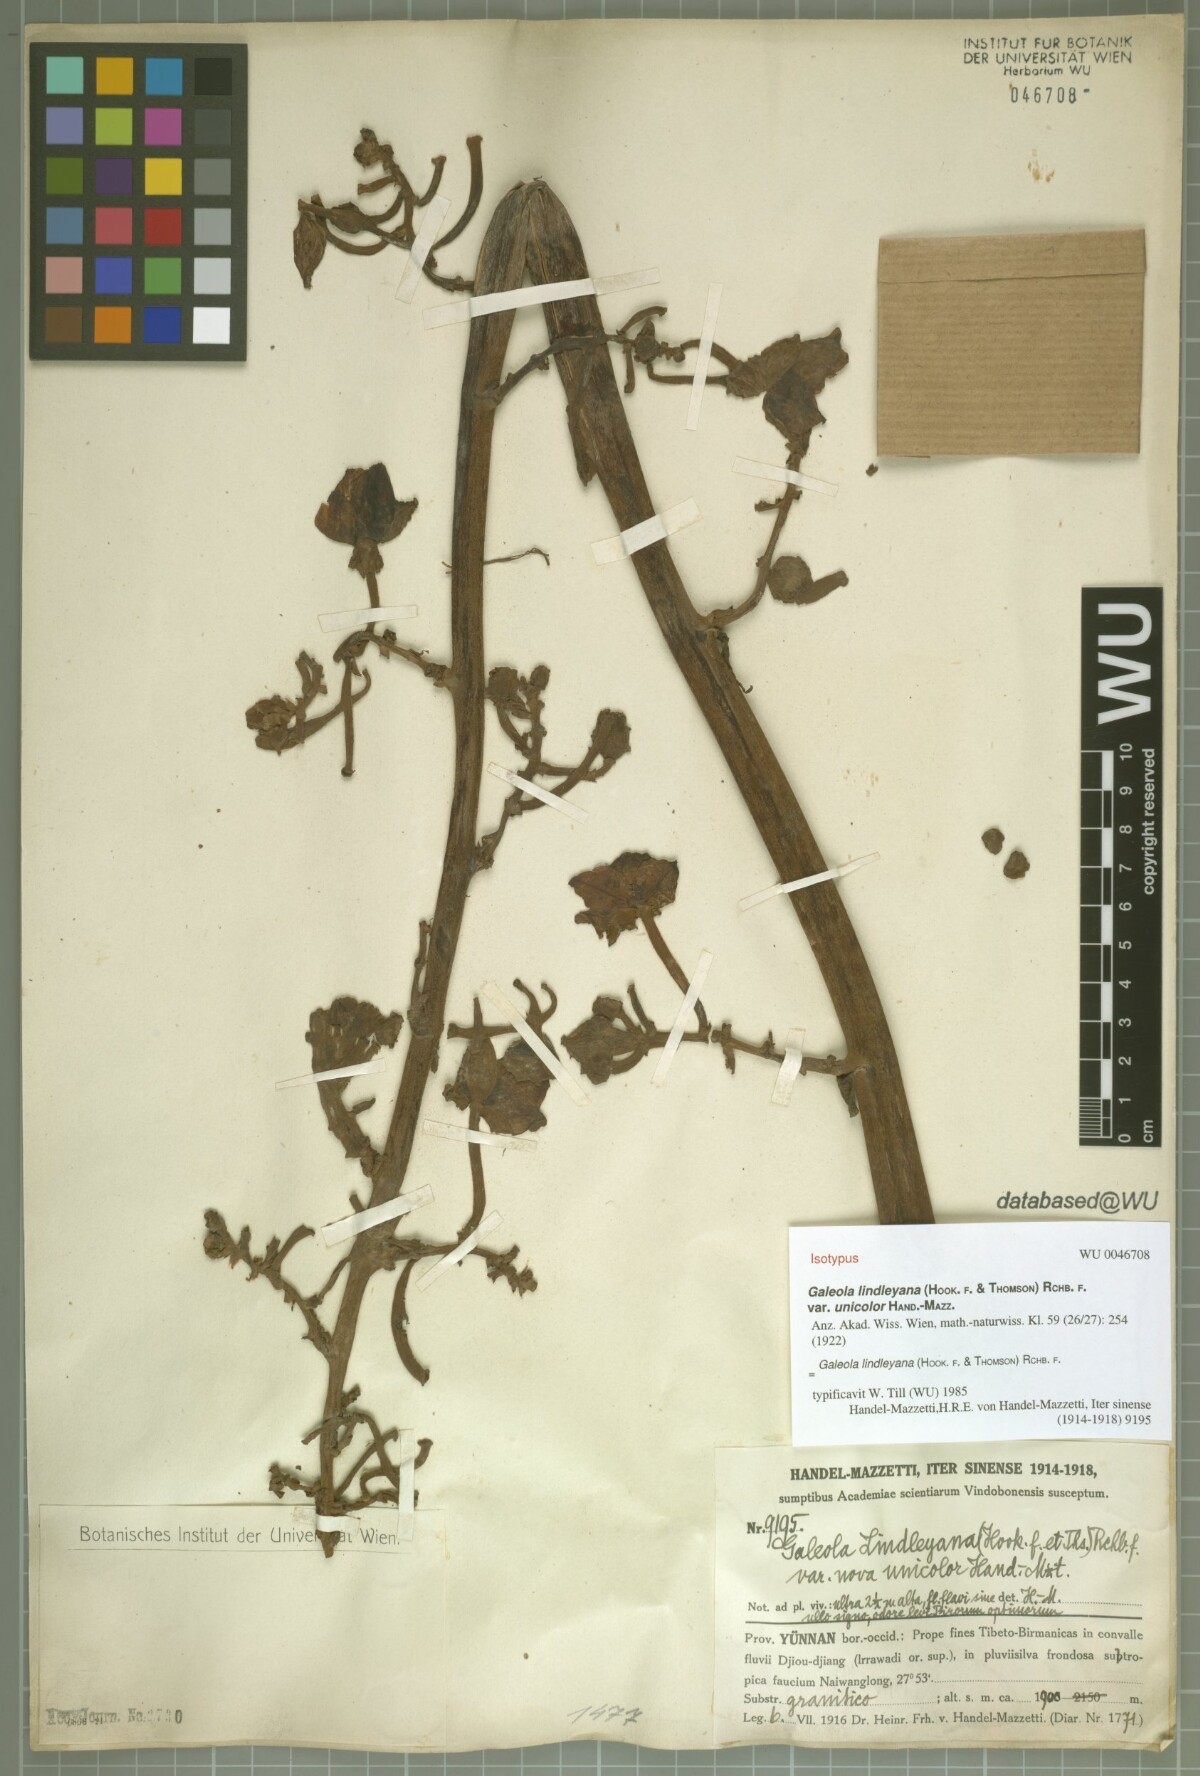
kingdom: Plantae
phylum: Tracheophyta
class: Liliopsida
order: Asparagales
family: Orchidaceae
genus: Cyrtosia
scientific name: Cyrtosia lindleyana
